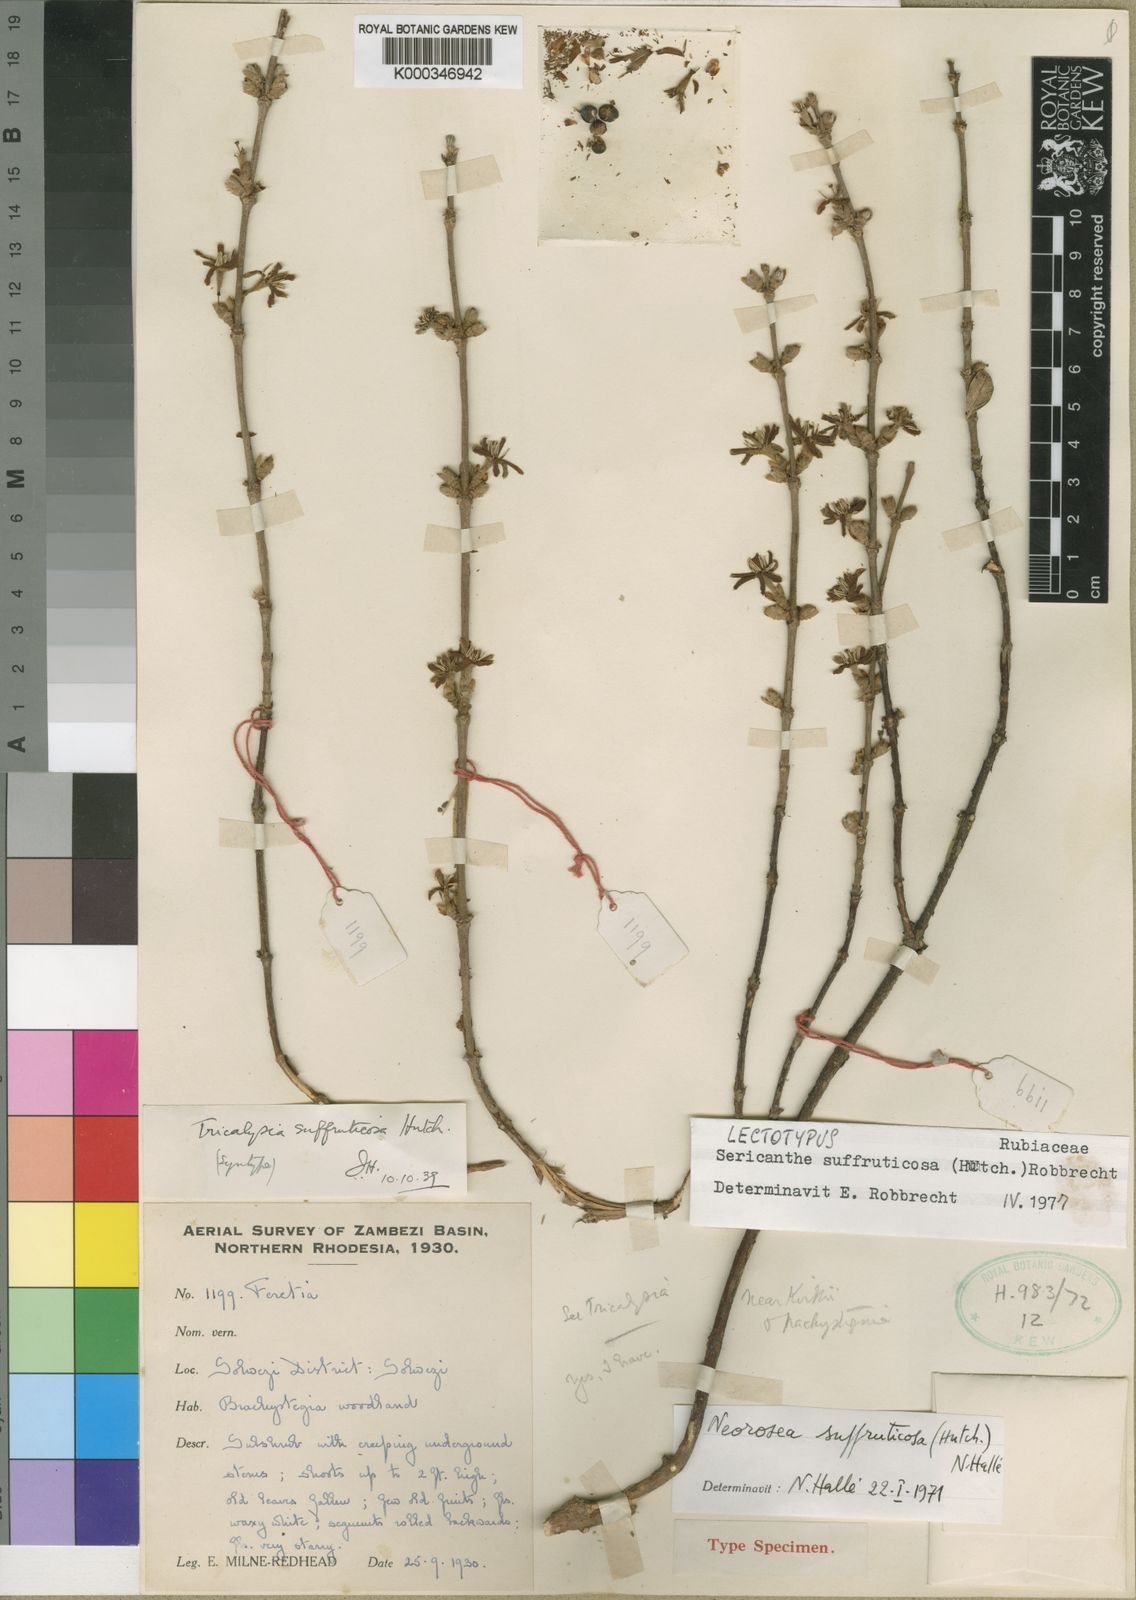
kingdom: Plantae
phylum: Tracheophyta
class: Magnoliopsida
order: Gentianales
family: Rubiaceae
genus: Sericanthe
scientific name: Sericanthe suffruticosa
